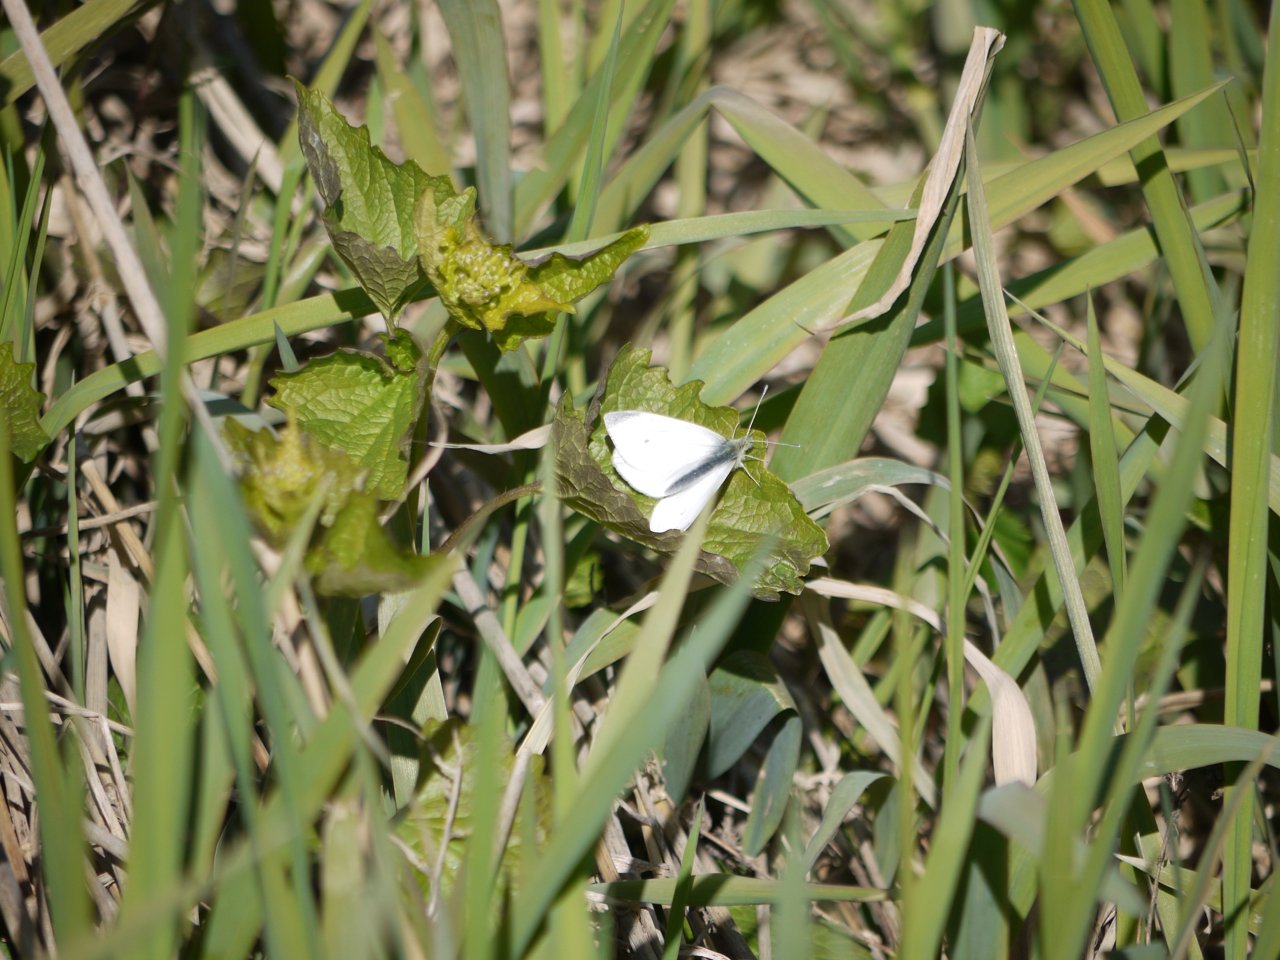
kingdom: Animalia
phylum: Arthropoda
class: Insecta
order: Lepidoptera
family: Pieridae
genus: Pieris
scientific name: Pieris rapae
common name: Cabbage White
